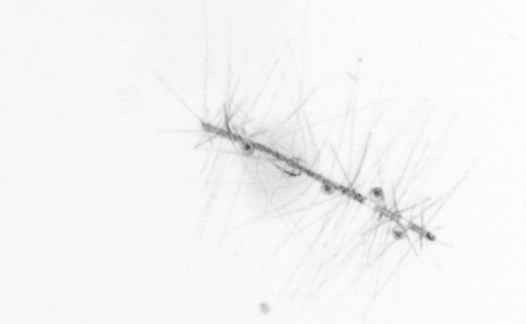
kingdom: Chromista
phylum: Ochrophyta
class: Bacillariophyceae
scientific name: Bacillariophyceae
